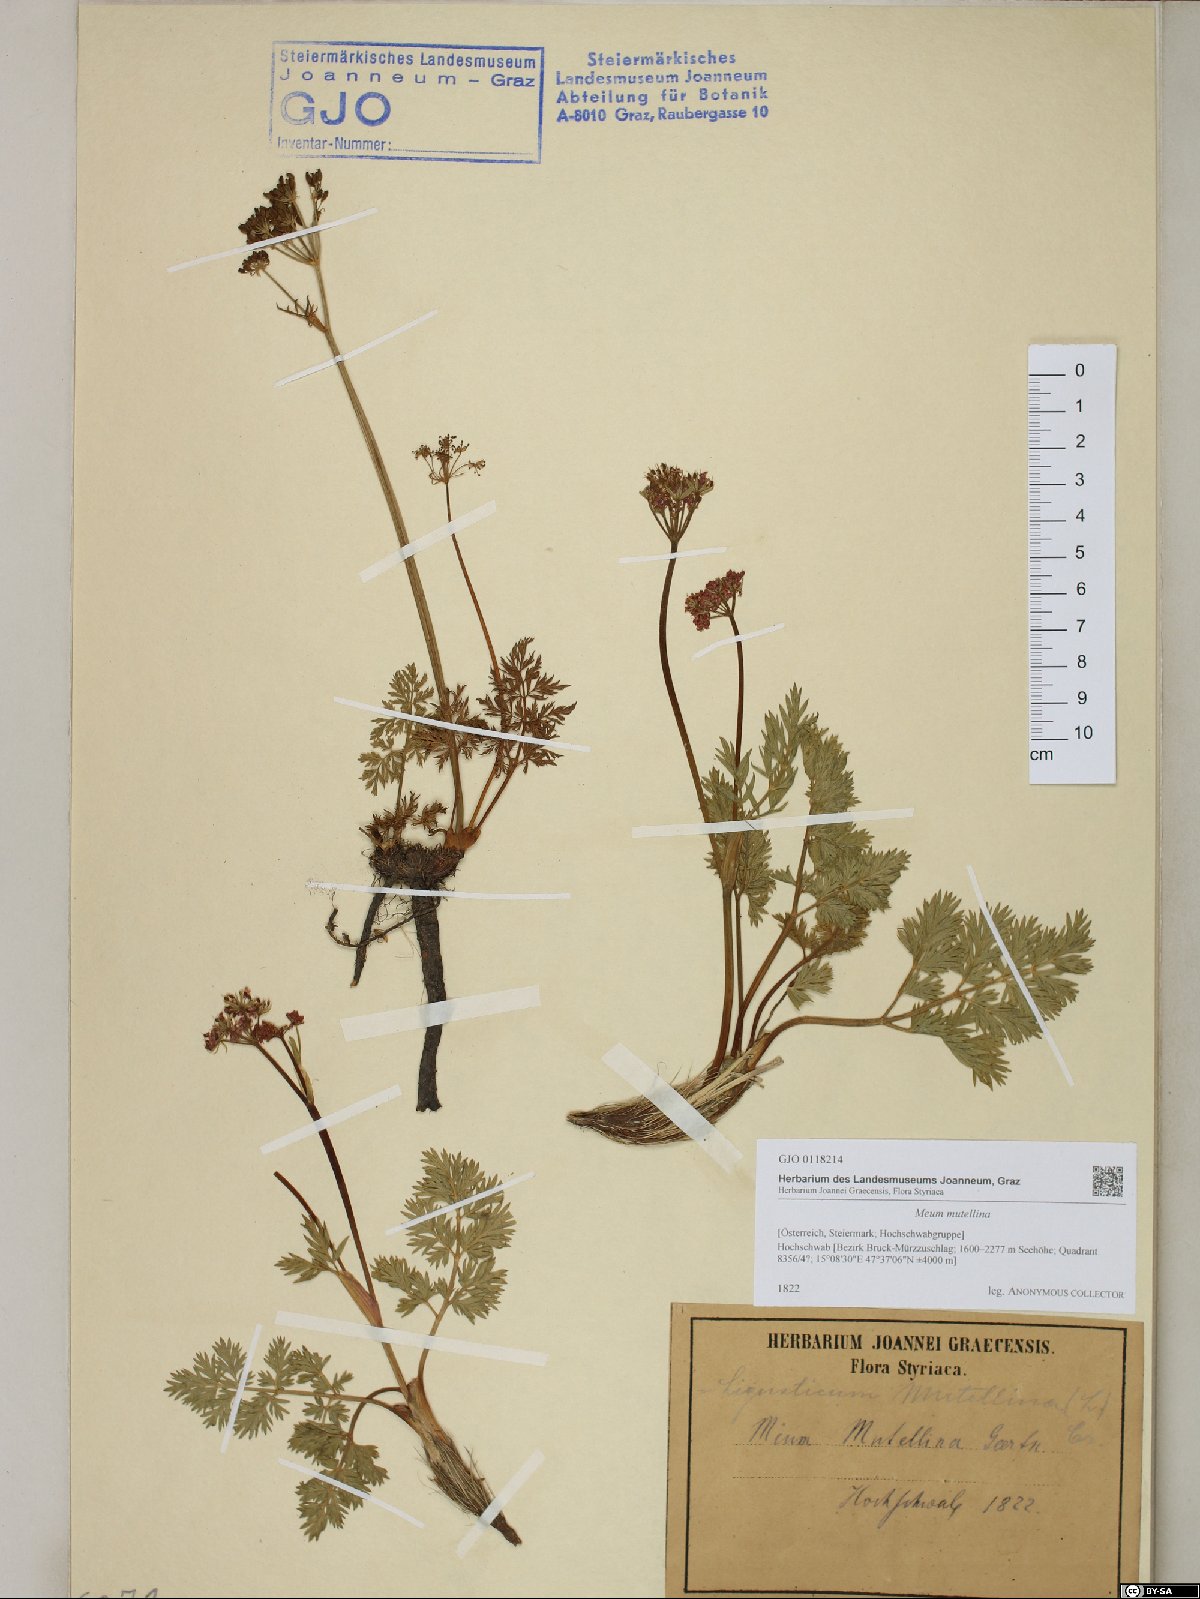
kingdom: Plantae
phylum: Tracheophyta
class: Magnoliopsida
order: Apiales
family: Apiaceae
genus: Mutellina
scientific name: Mutellina adonidifolia
